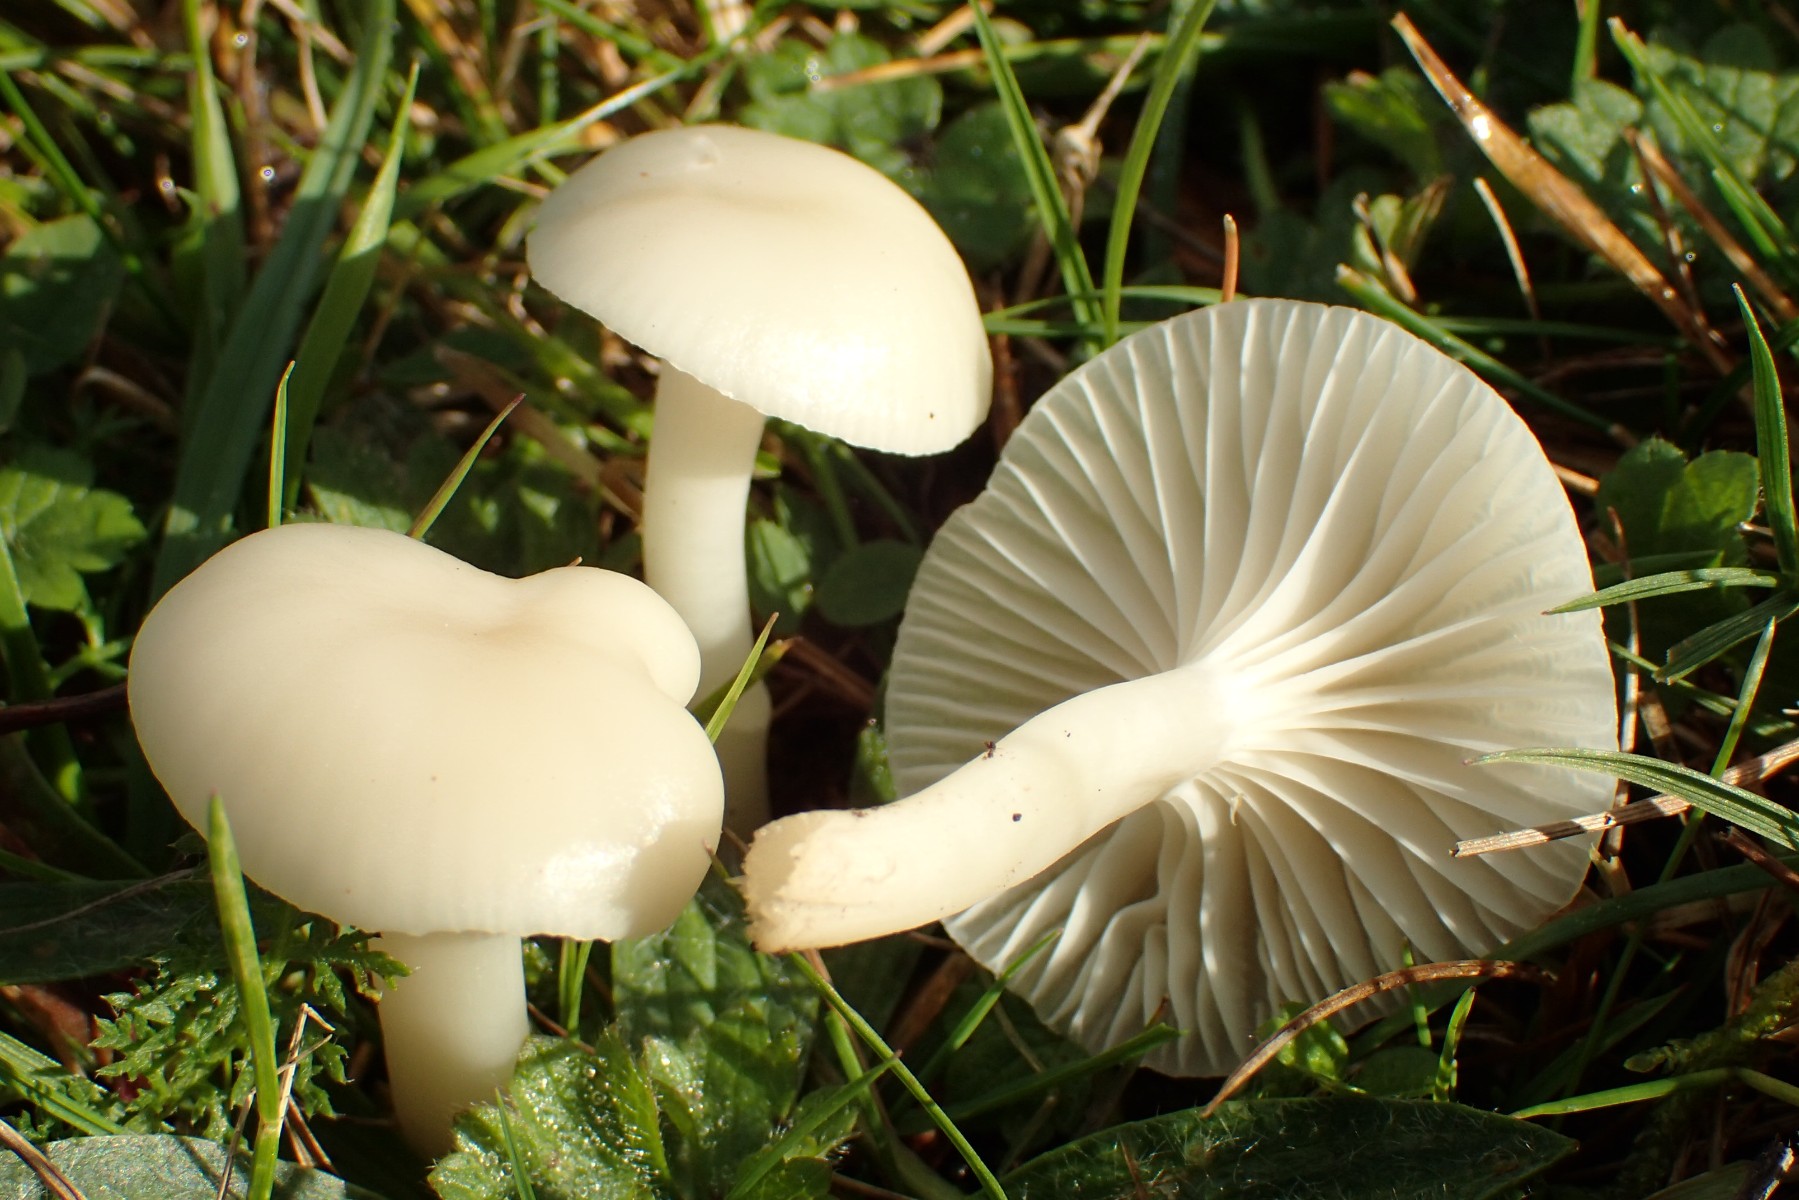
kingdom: Fungi
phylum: Basidiomycota
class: Agaricomycetes
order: Agaricales
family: Hygrophoraceae
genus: Cuphophyllus
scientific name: Cuphophyllus virgineus
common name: snehvid vokshat
